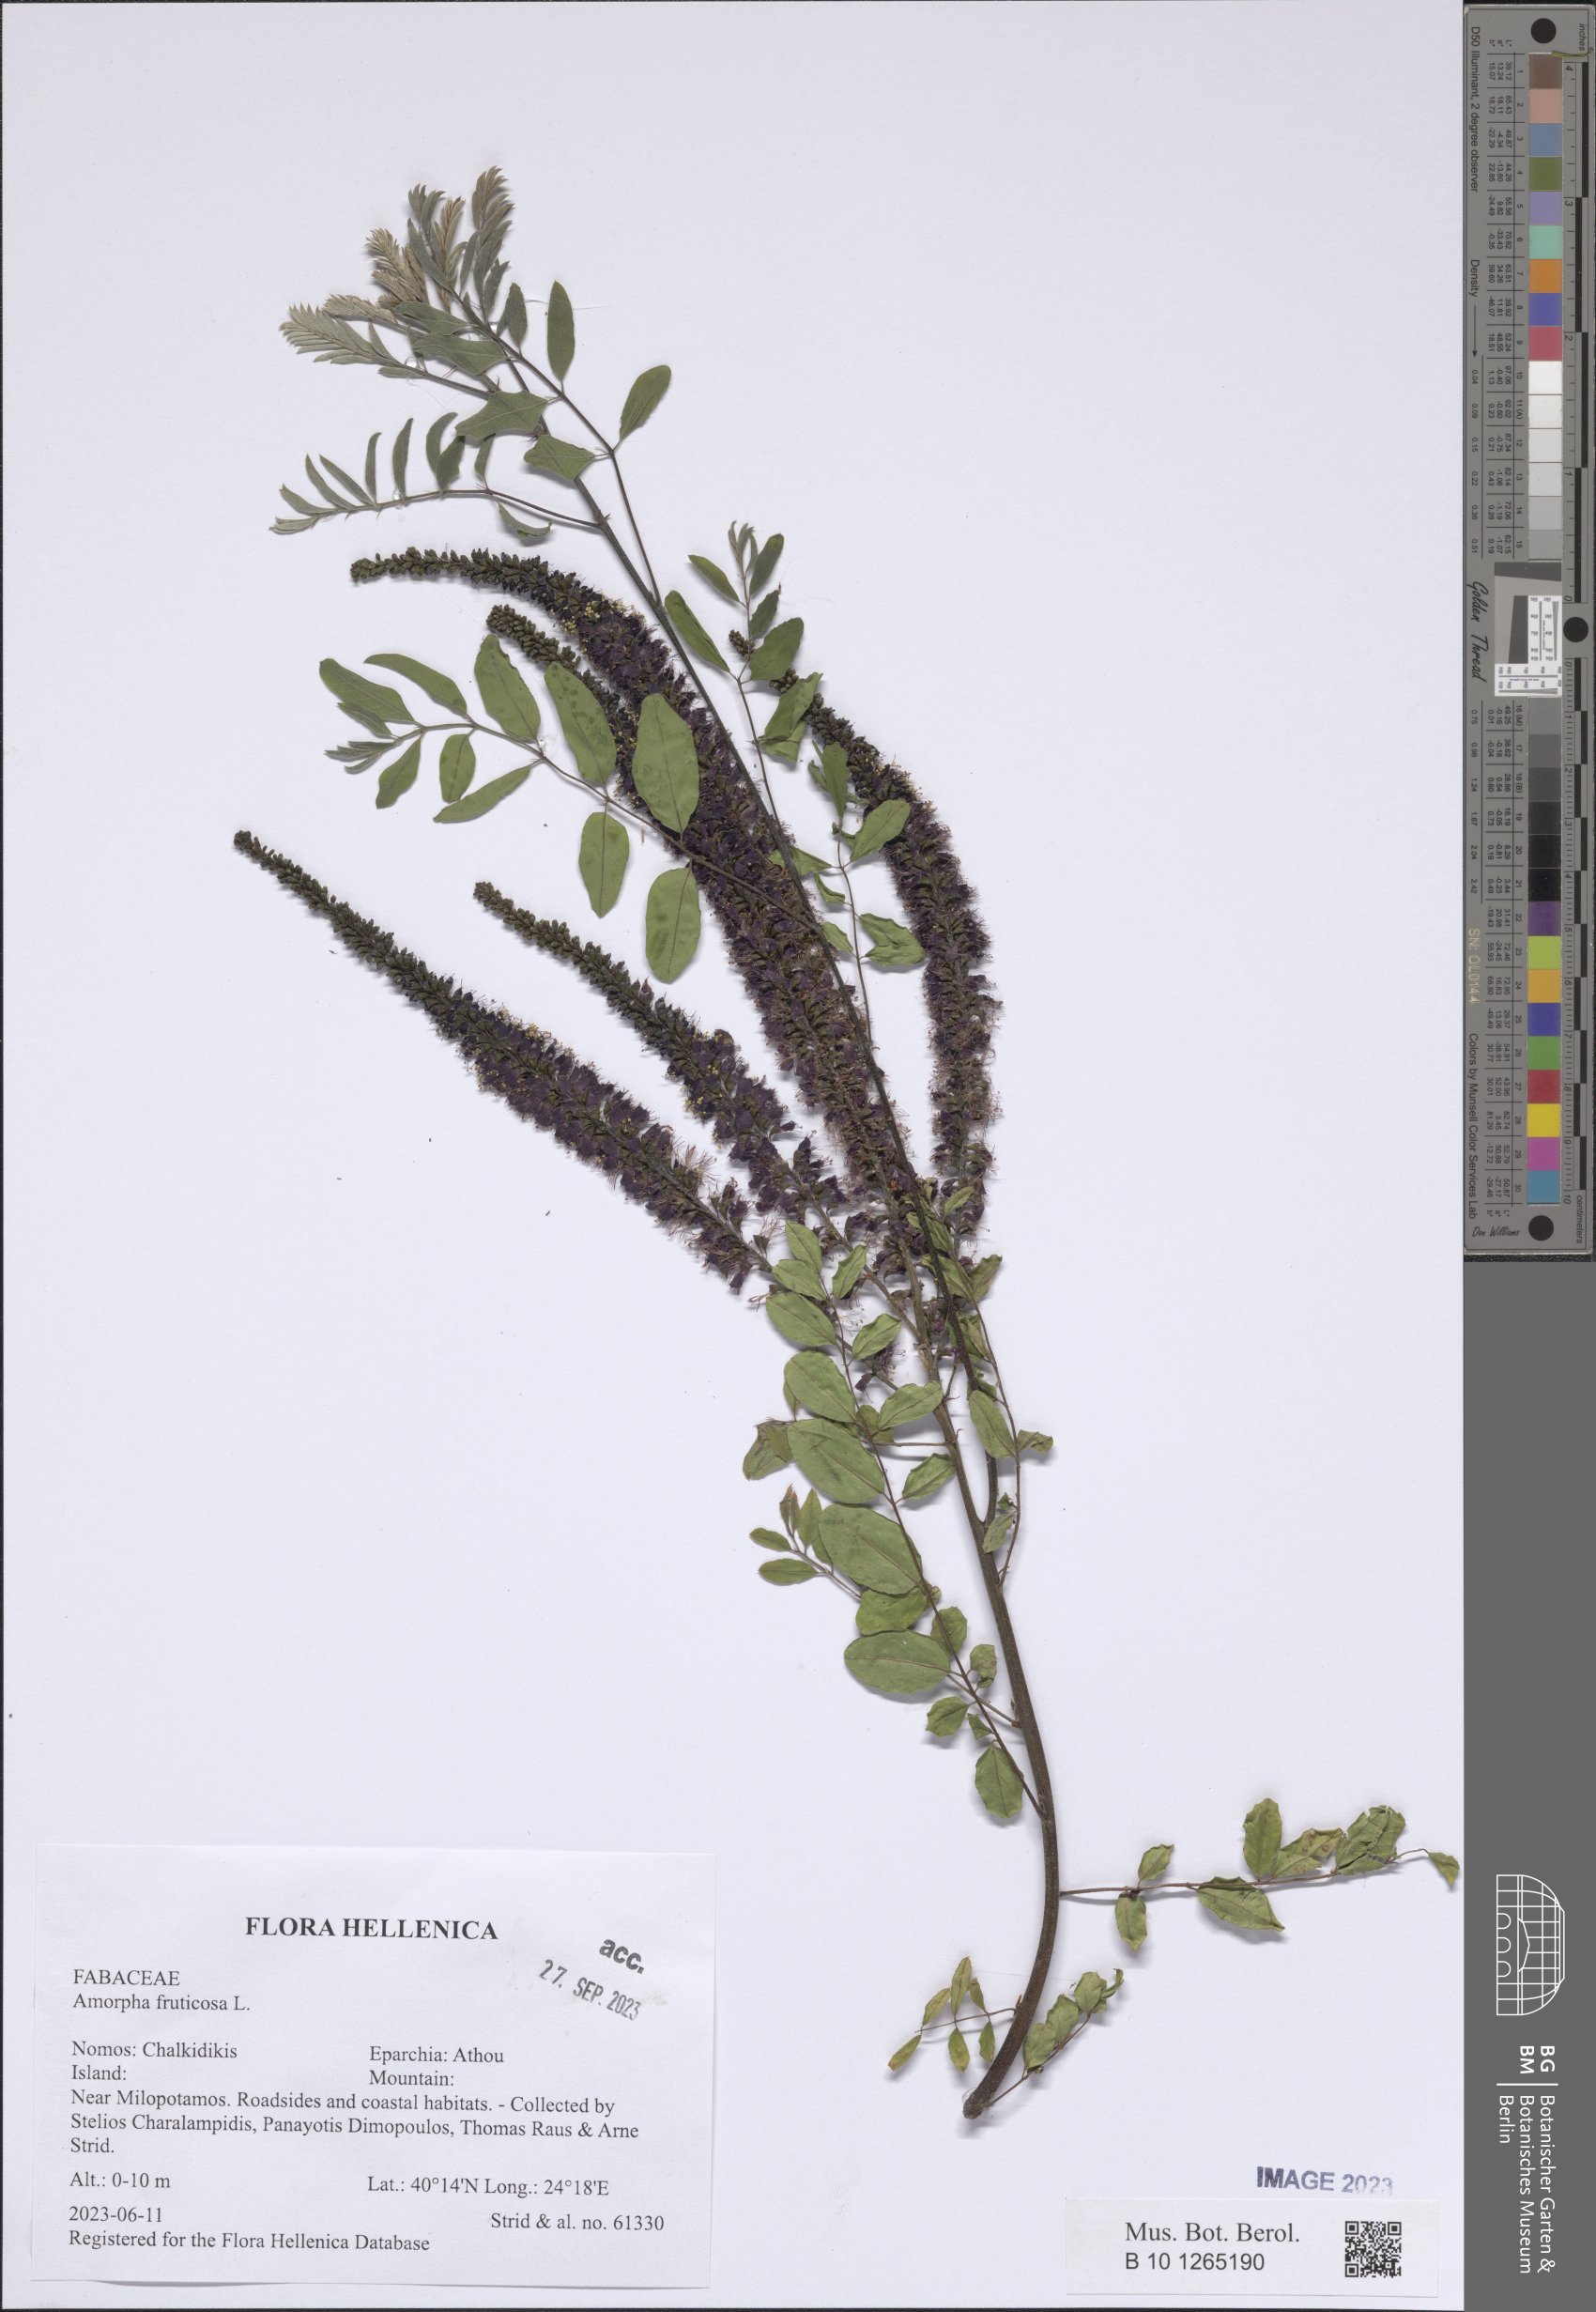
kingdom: Plantae
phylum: Tracheophyta
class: Magnoliopsida
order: Fabales
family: Fabaceae
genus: Amorpha
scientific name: Amorpha fruticosa
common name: False indigo
